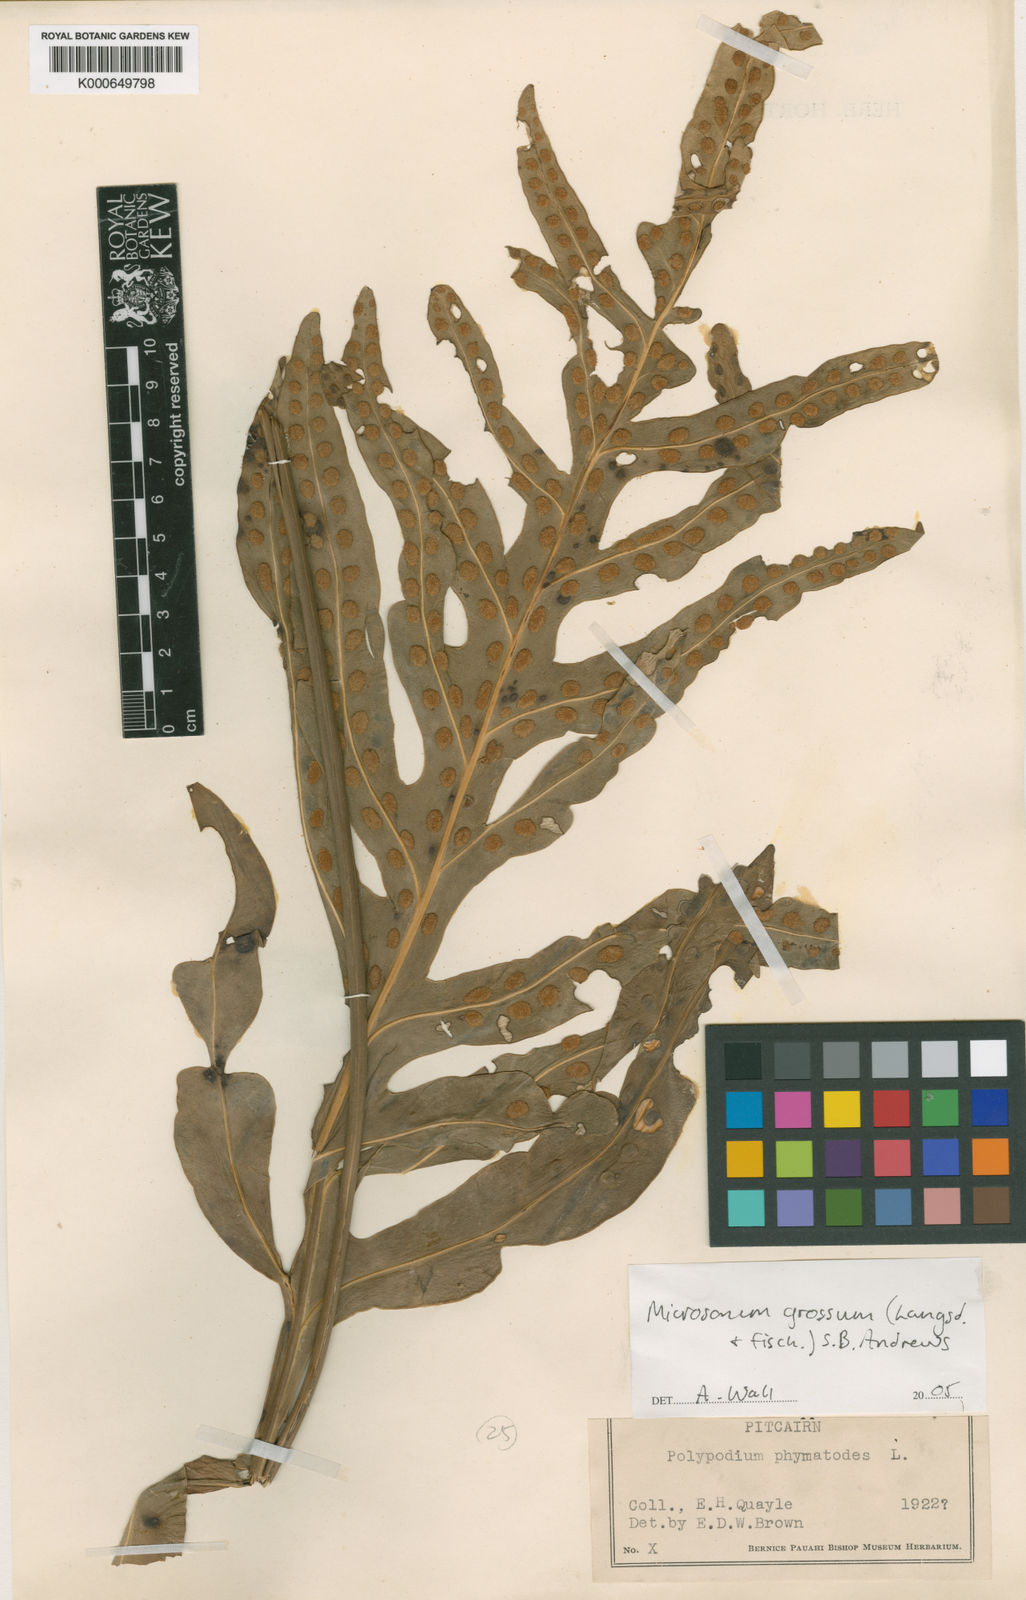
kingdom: Plantae
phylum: Tracheophyta
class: Polypodiopsida
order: Polypodiales
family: Polypodiaceae
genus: Microsorum
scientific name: Microsorum grossum
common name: Musk fern
